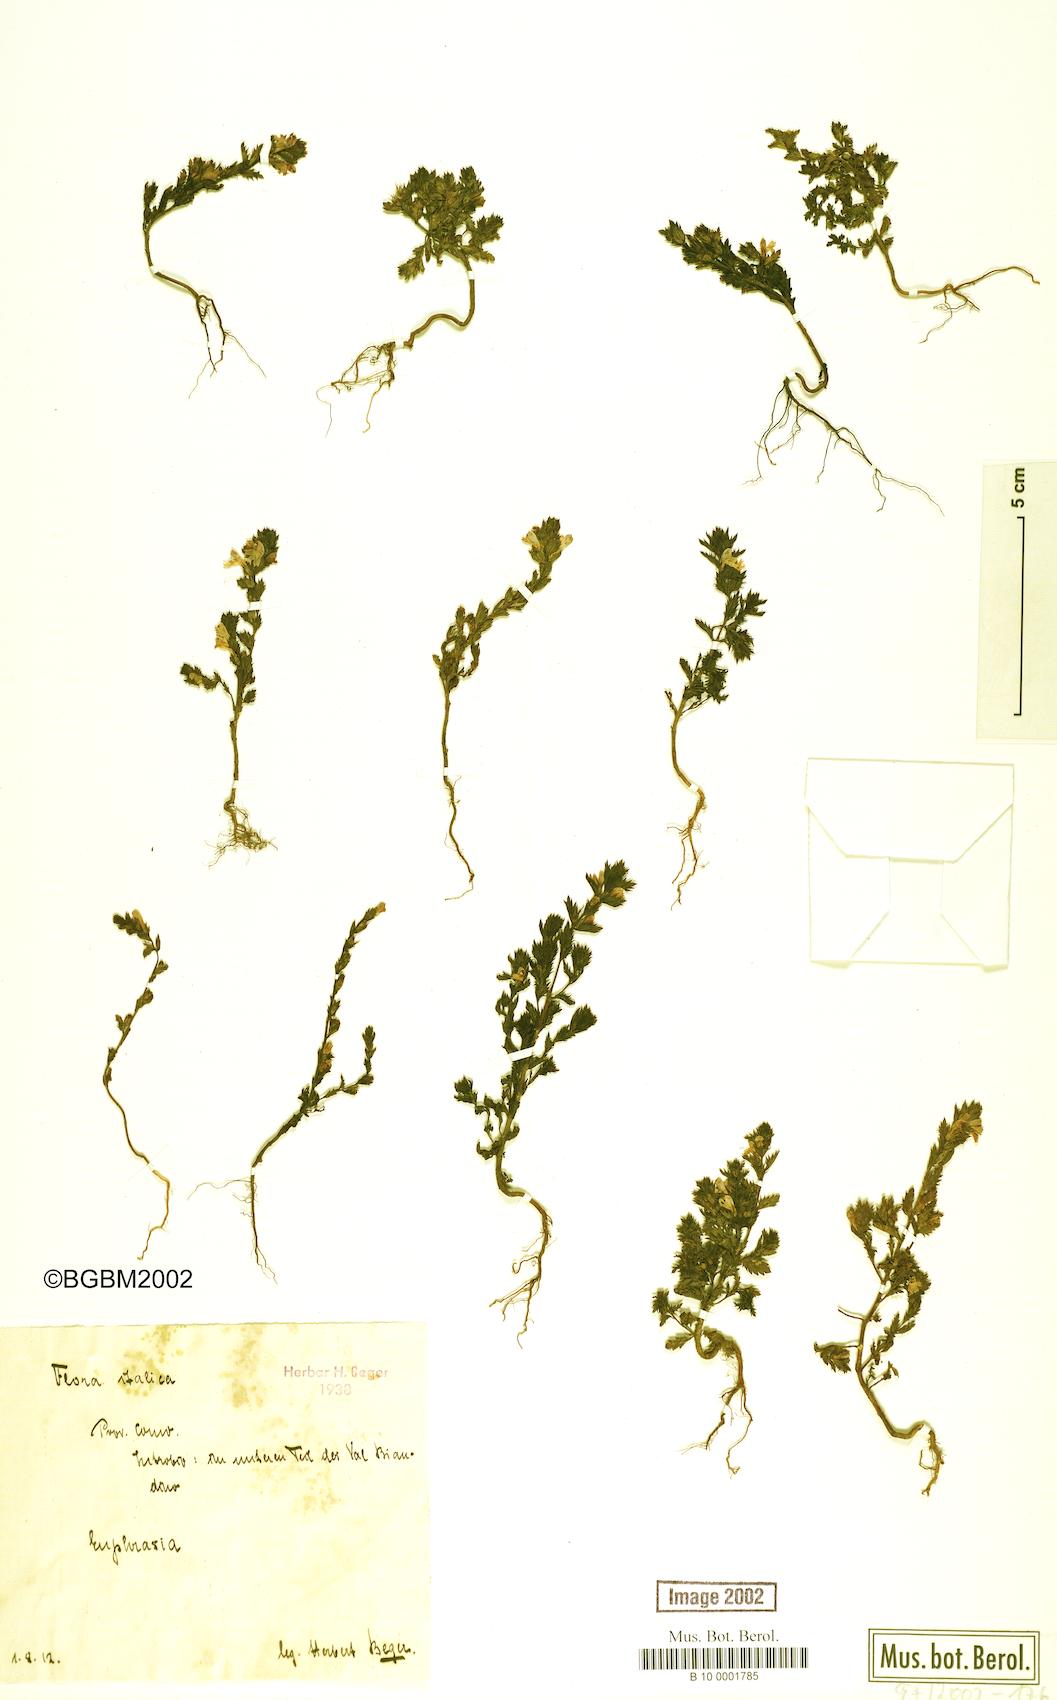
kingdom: Plantae
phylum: Tracheophyta
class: Magnoliopsida
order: Lamiales
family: Orobanchaceae
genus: Euphrasia
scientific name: Euphrasia
